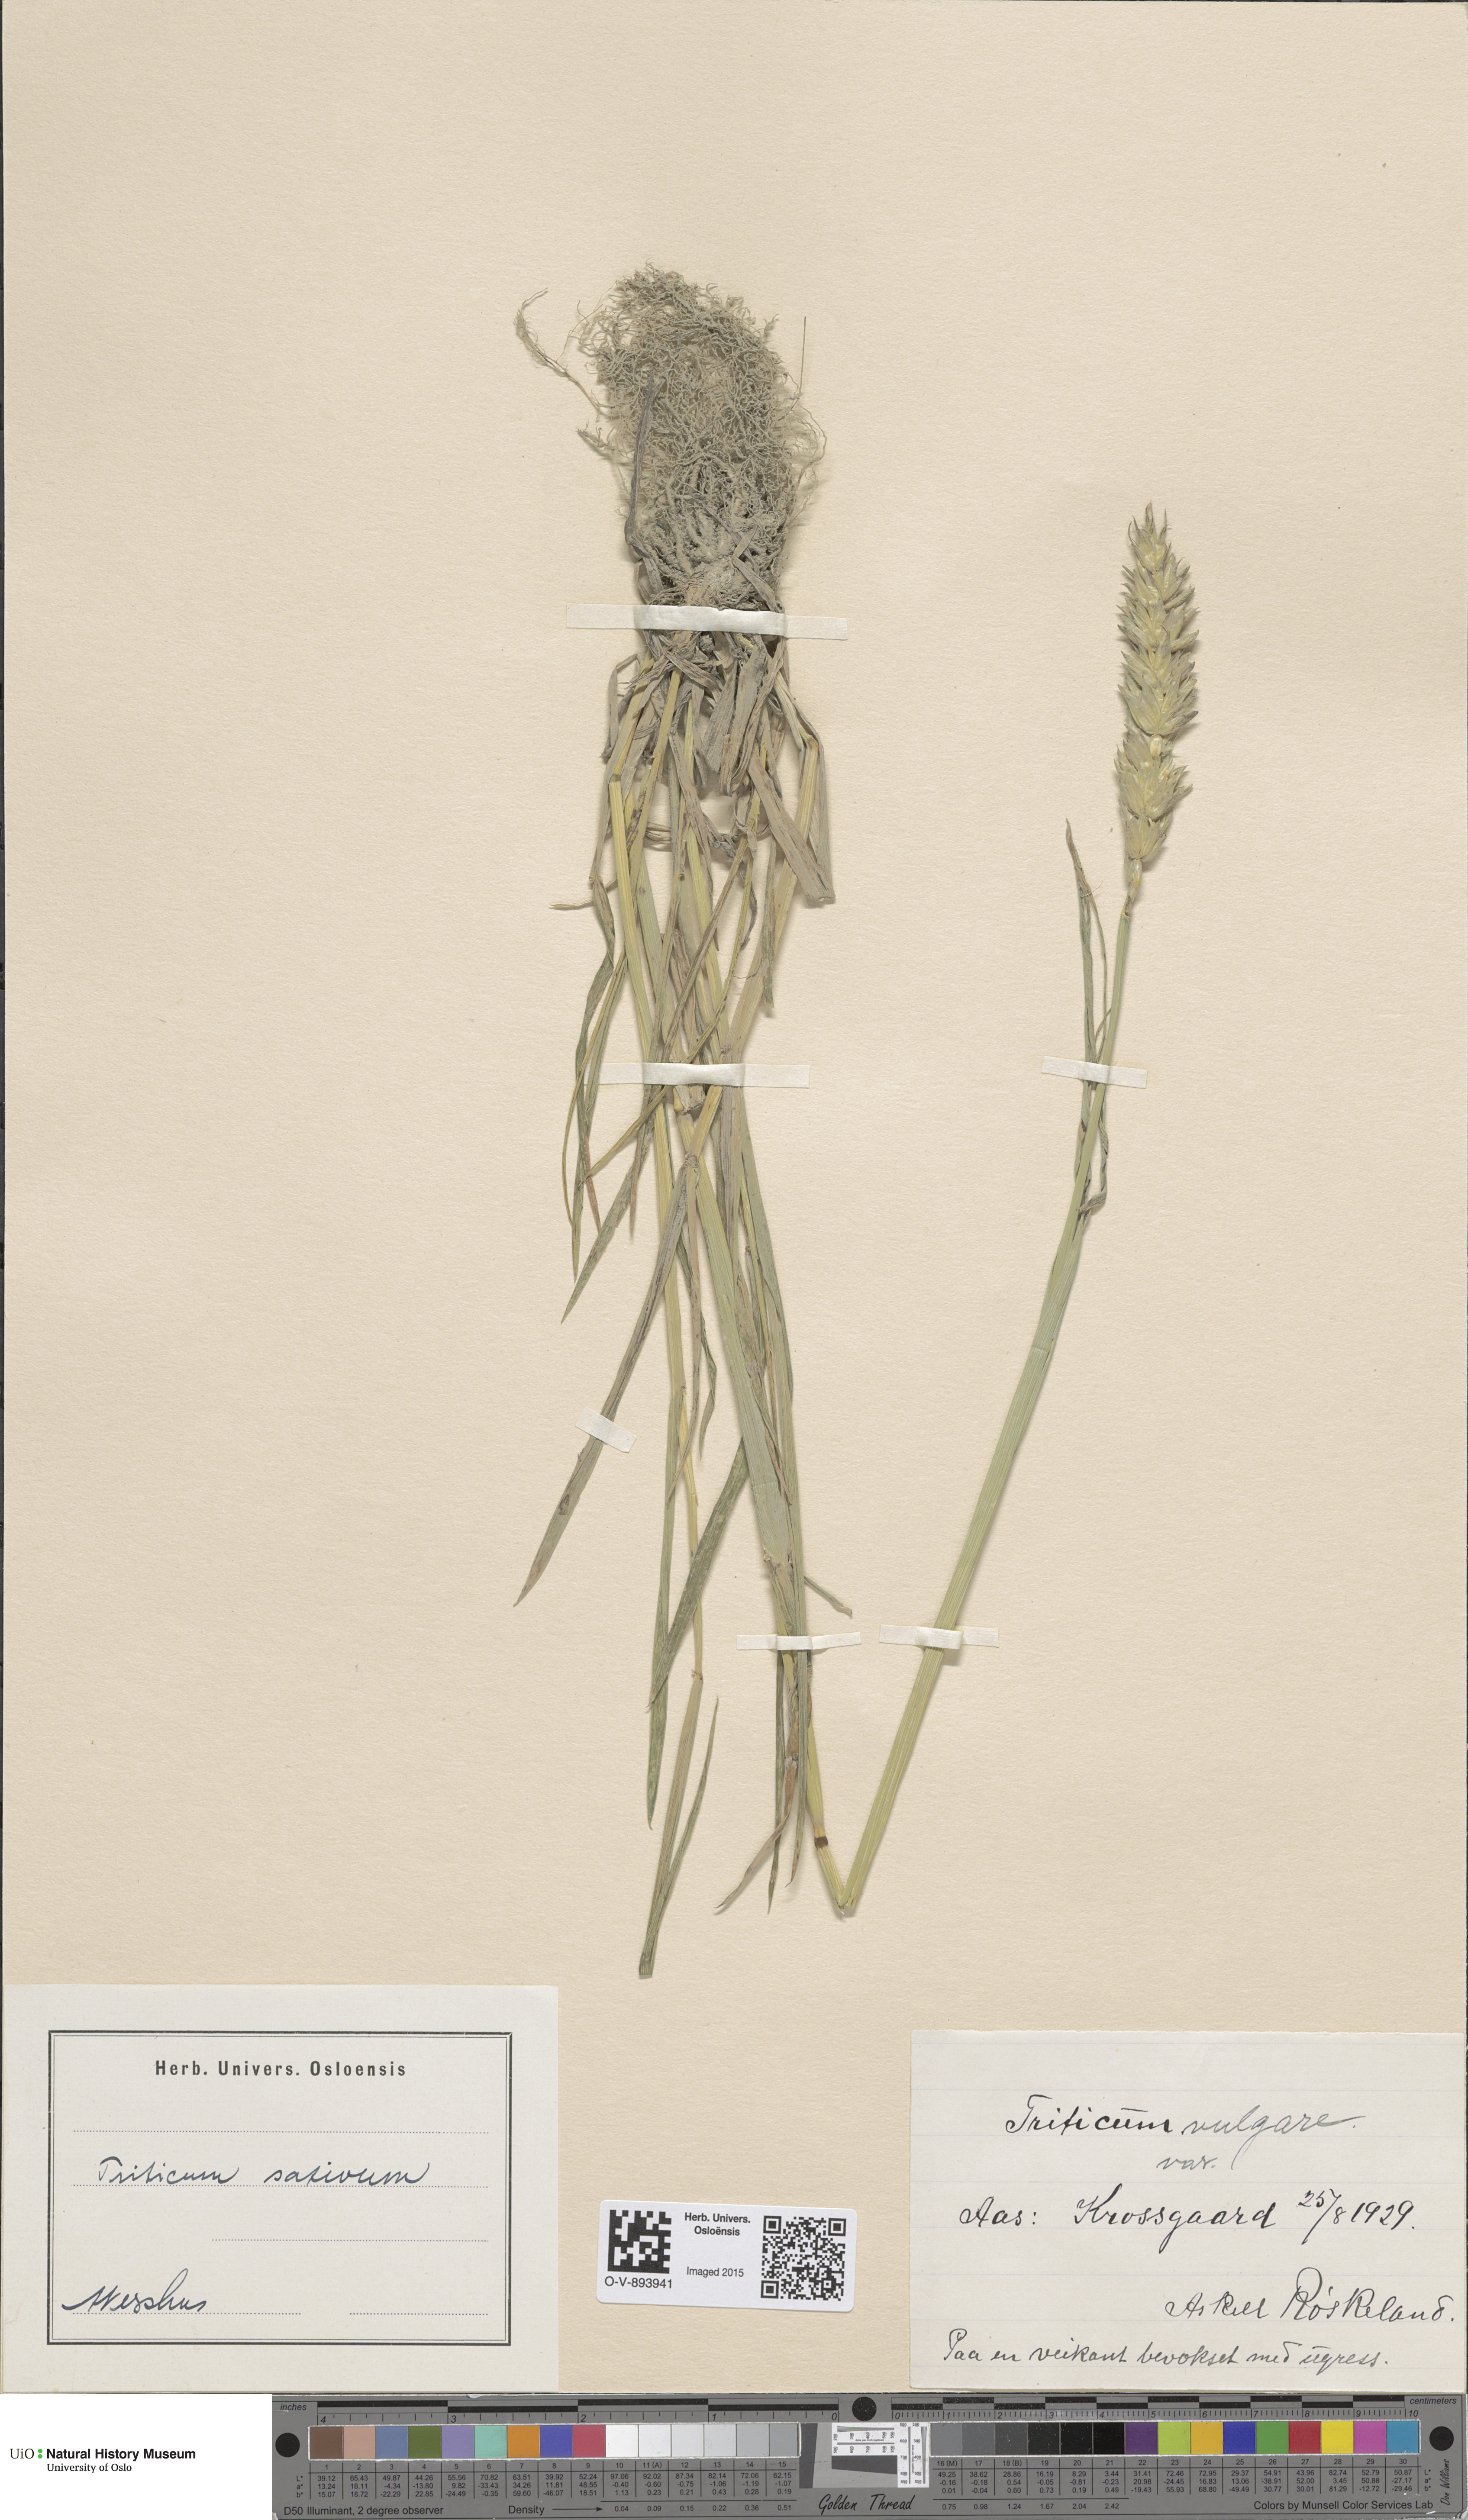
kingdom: Plantae
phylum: Tracheophyta
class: Liliopsida
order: Poales
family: Poaceae
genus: Triticum
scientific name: Triticum aestivum
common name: Common wheat
